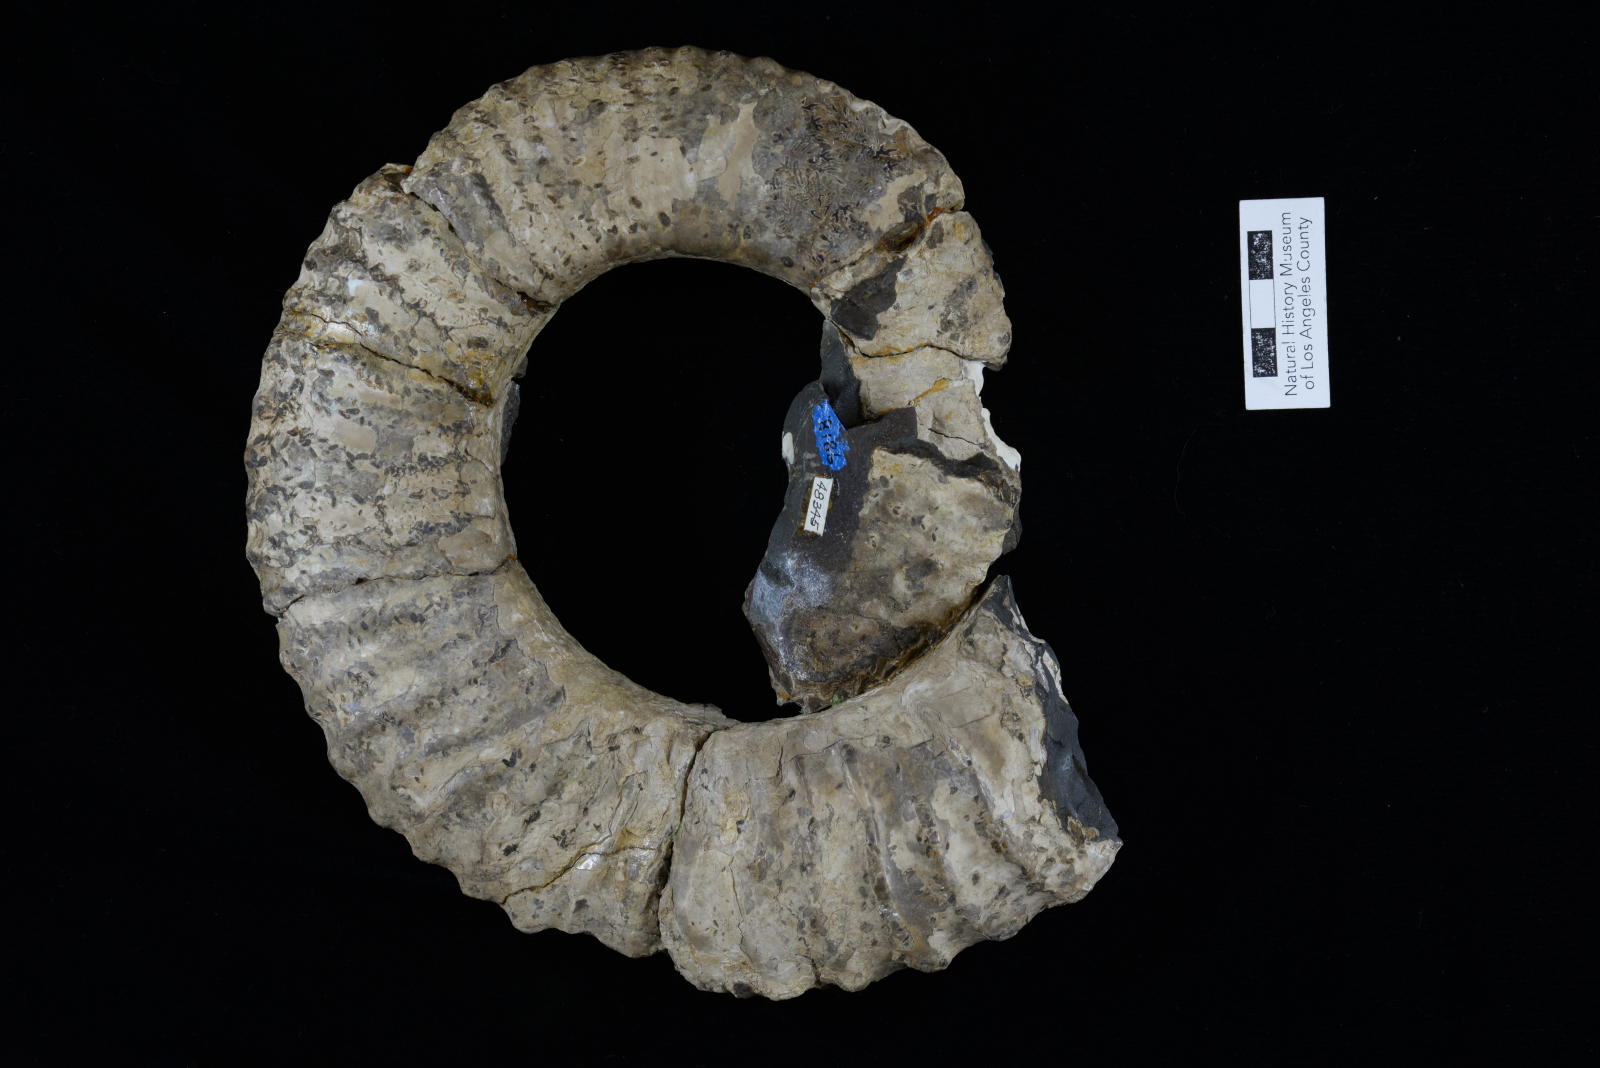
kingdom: Animalia
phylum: Mollusca
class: Cephalopoda
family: Megacrioceratidae
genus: Shasticrioceras
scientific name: Shasticrioceras roddai
